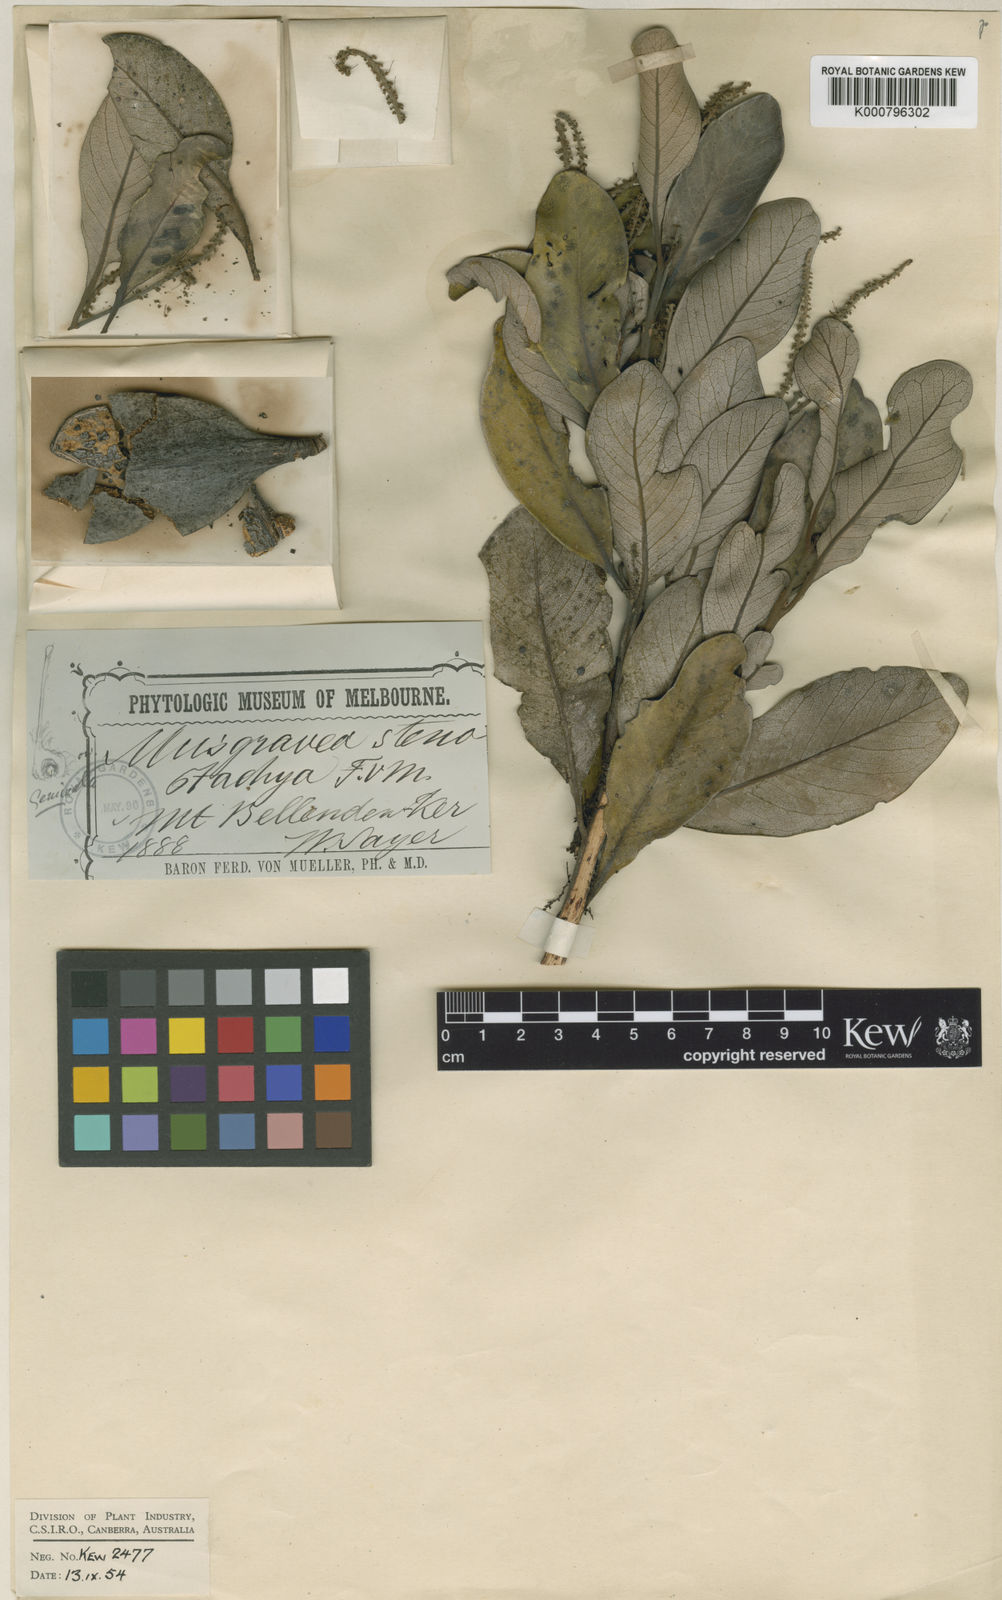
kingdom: Plantae
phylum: Tracheophyta
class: Magnoliopsida
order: Proteales
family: Proteaceae
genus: Musgravea
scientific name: Musgravea stenostachya
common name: Crater silky oak
